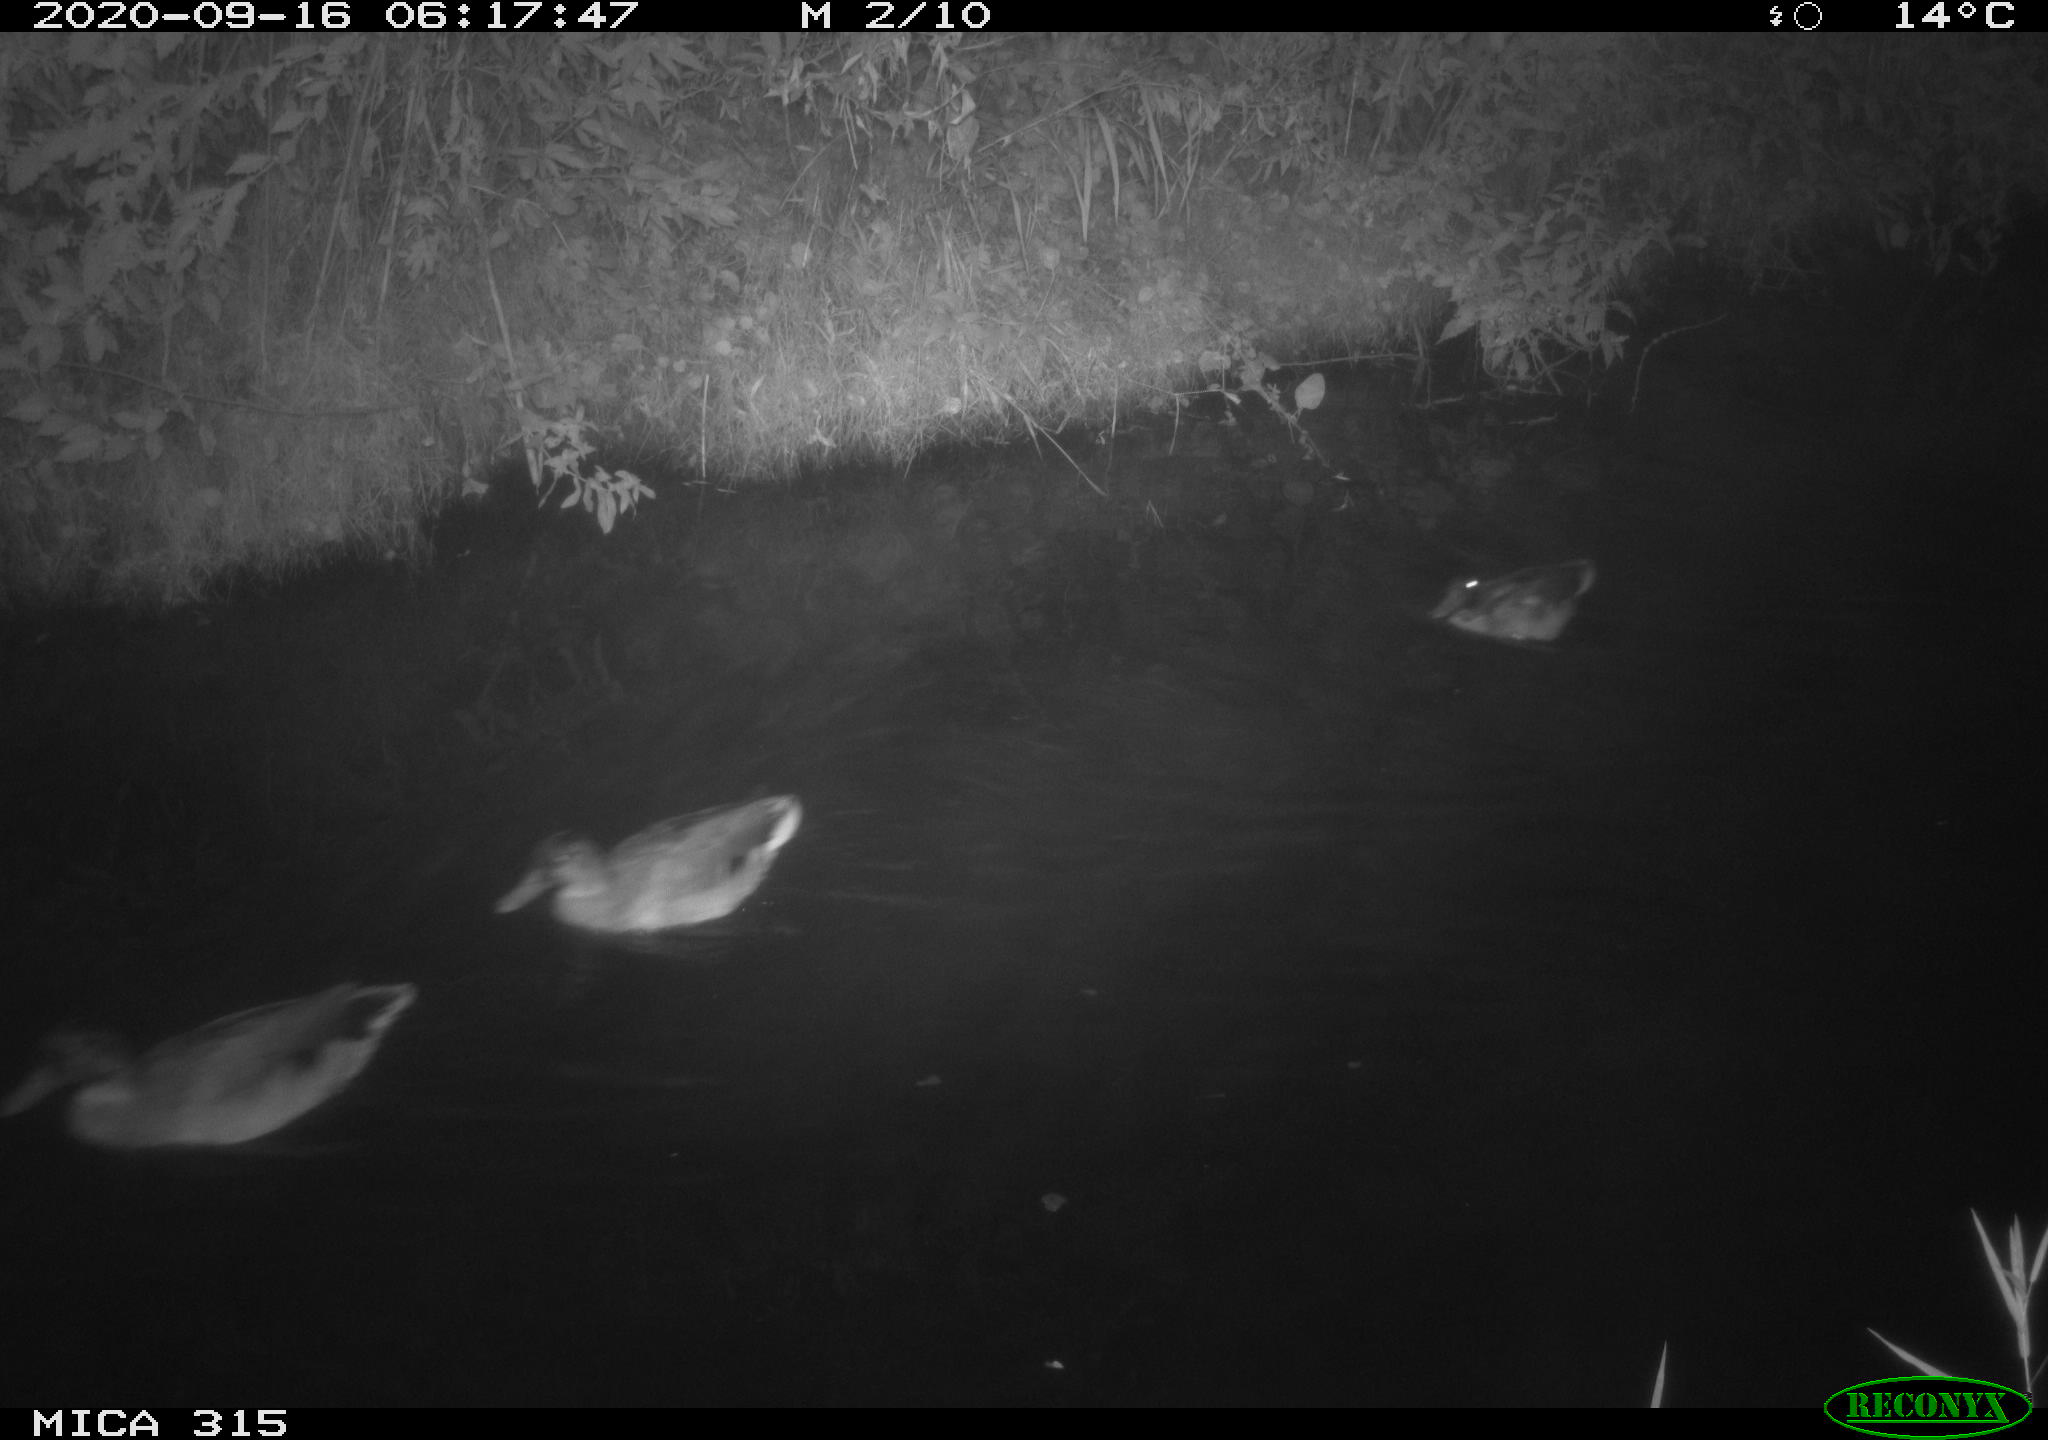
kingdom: Animalia
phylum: Chordata
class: Aves
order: Anseriformes
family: Anatidae
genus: Anas
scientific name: Anas platyrhynchos
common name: Mallard
